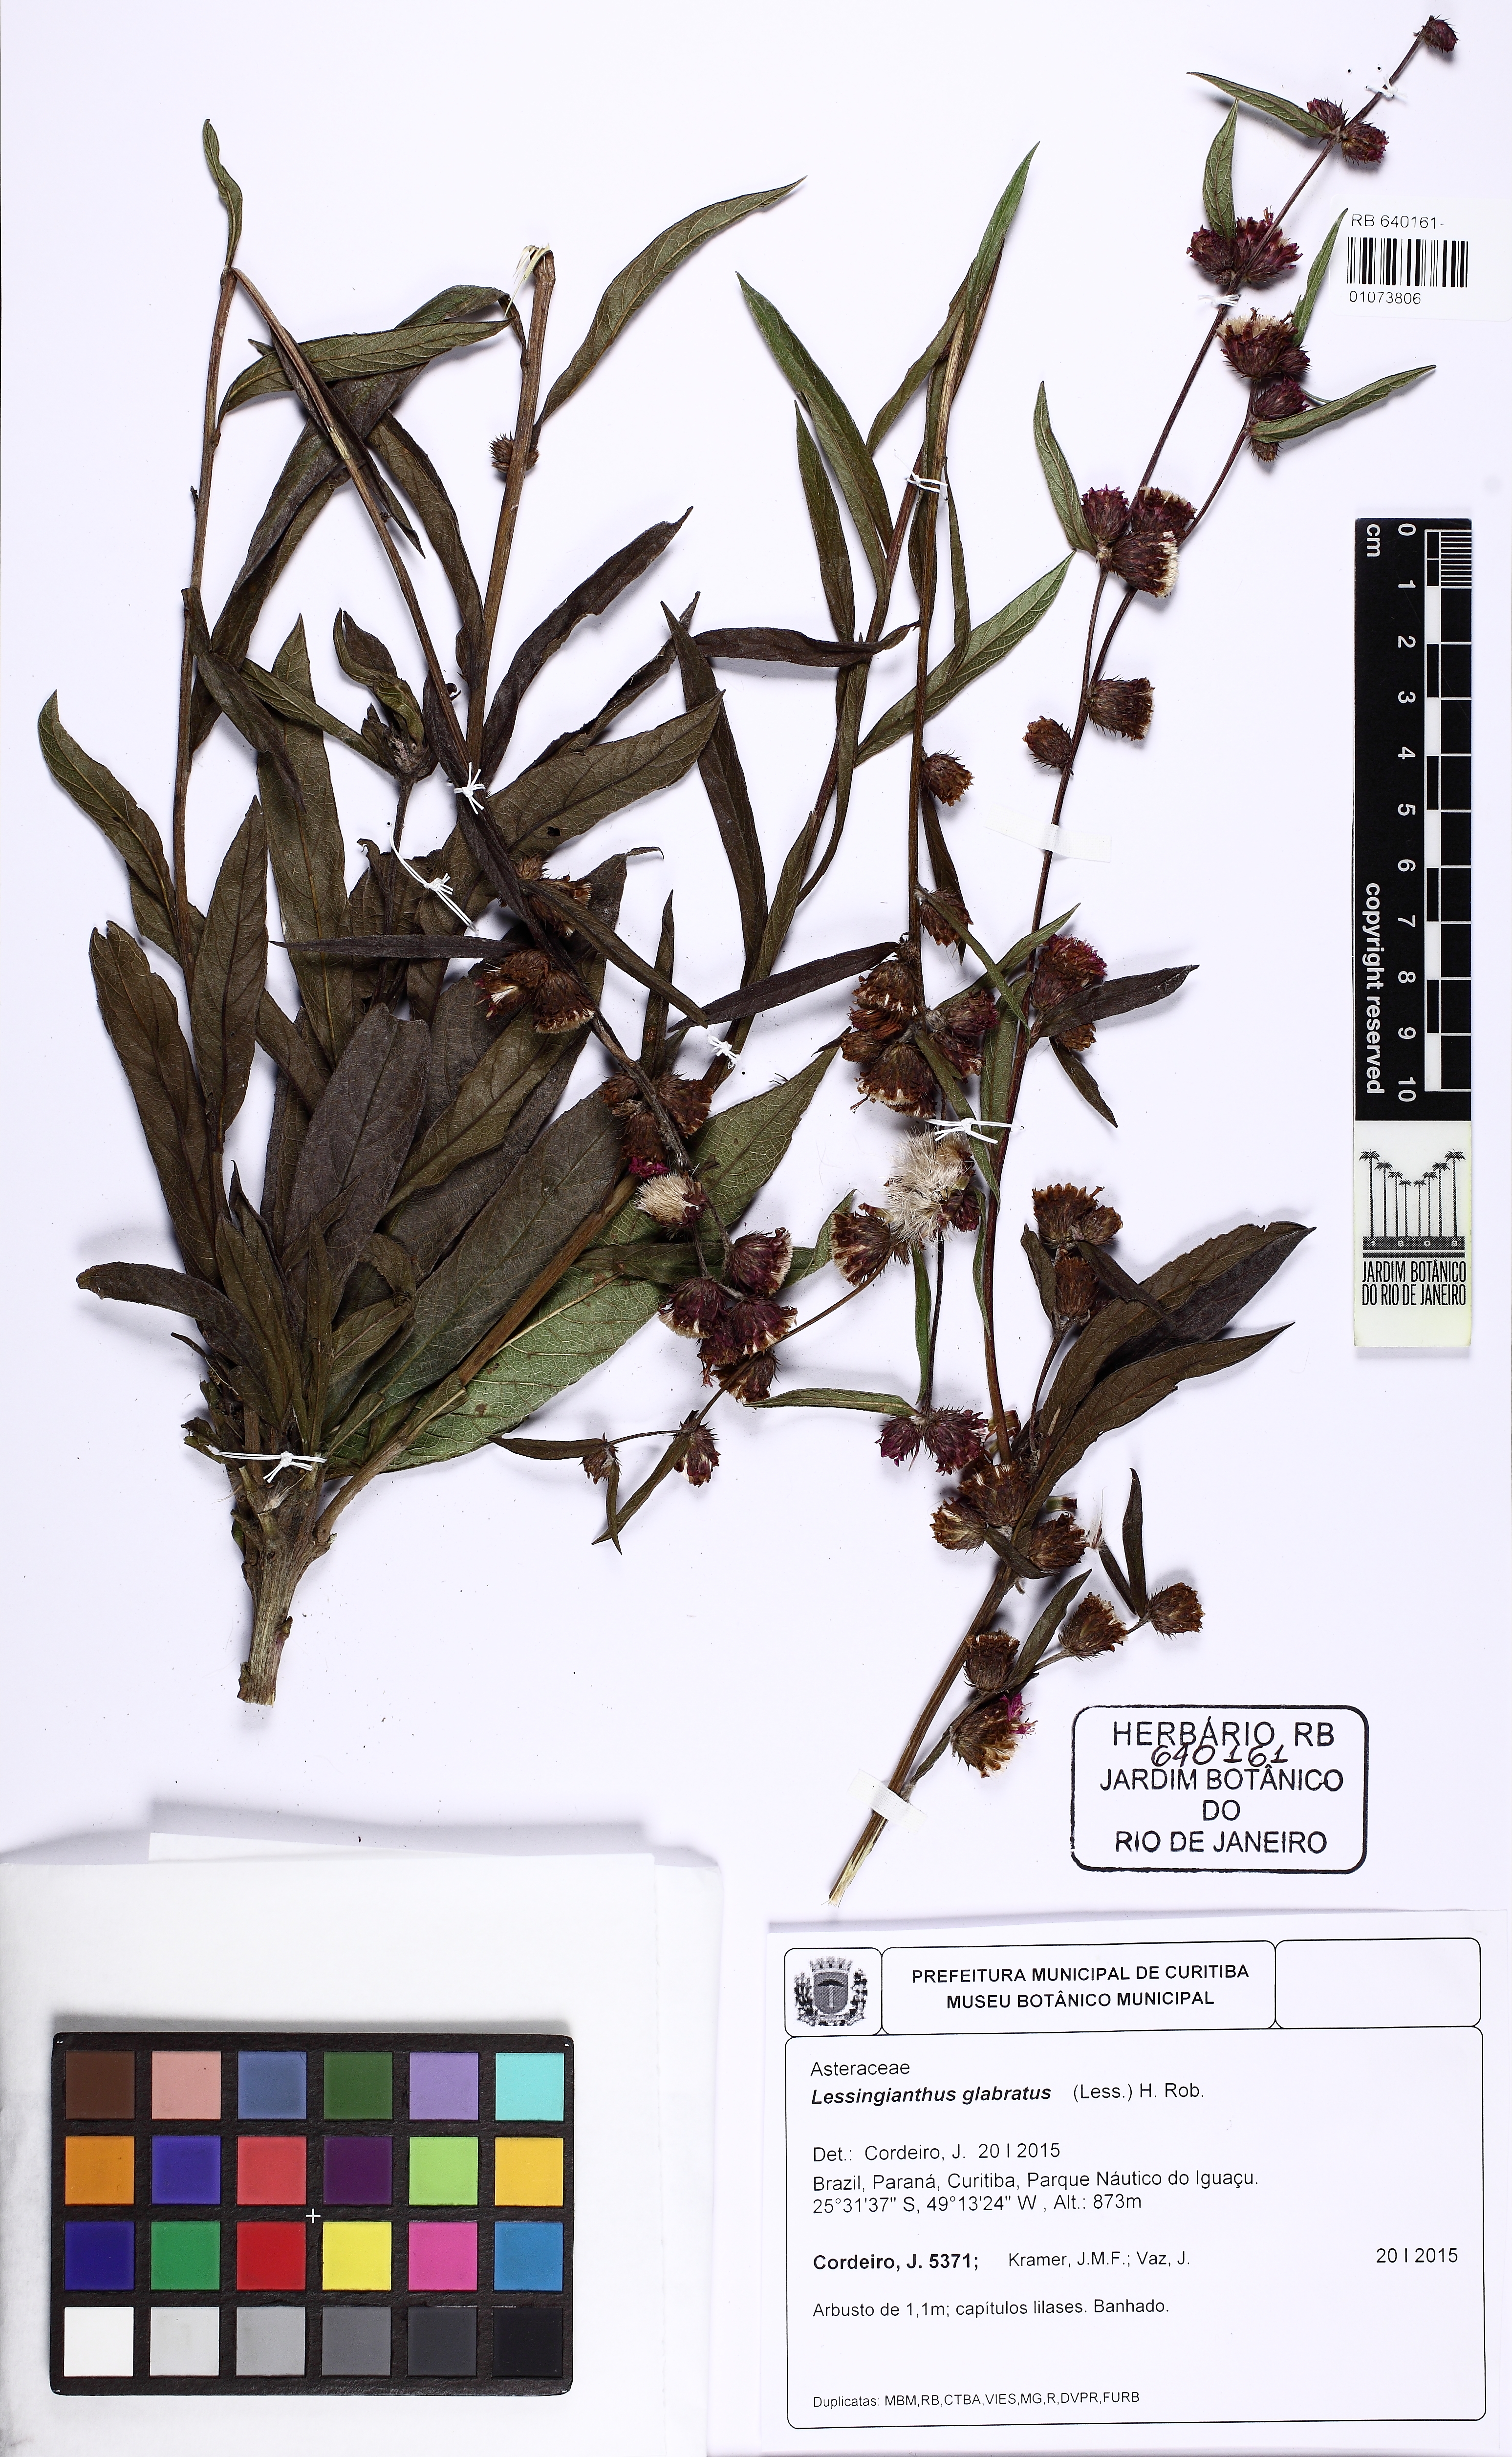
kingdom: Plantae
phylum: Tracheophyta
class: Magnoliopsida
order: Asterales
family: Asteraceae
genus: Lessingianthus
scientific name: Lessingianthus glabratus
